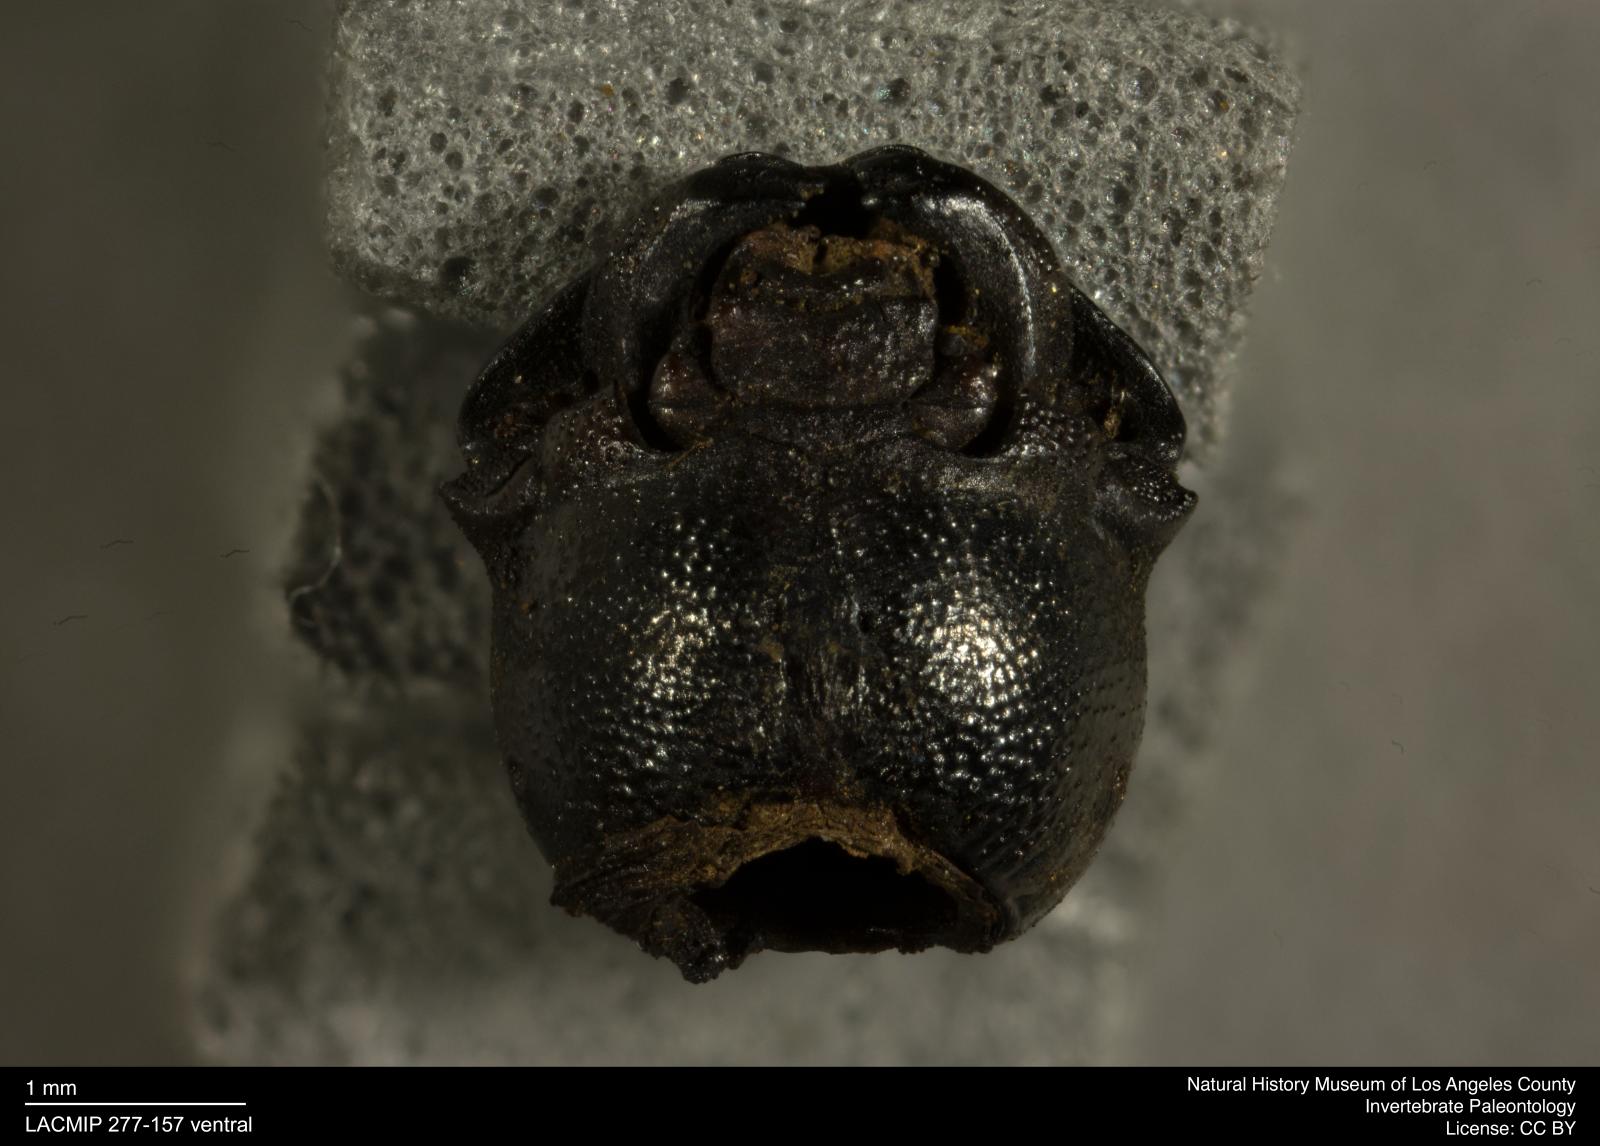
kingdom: Animalia
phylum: Arthropoda
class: Insecta
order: Coleoptera
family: Tenebrionidae
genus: Coniontis
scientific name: Coniontis abdominalis
